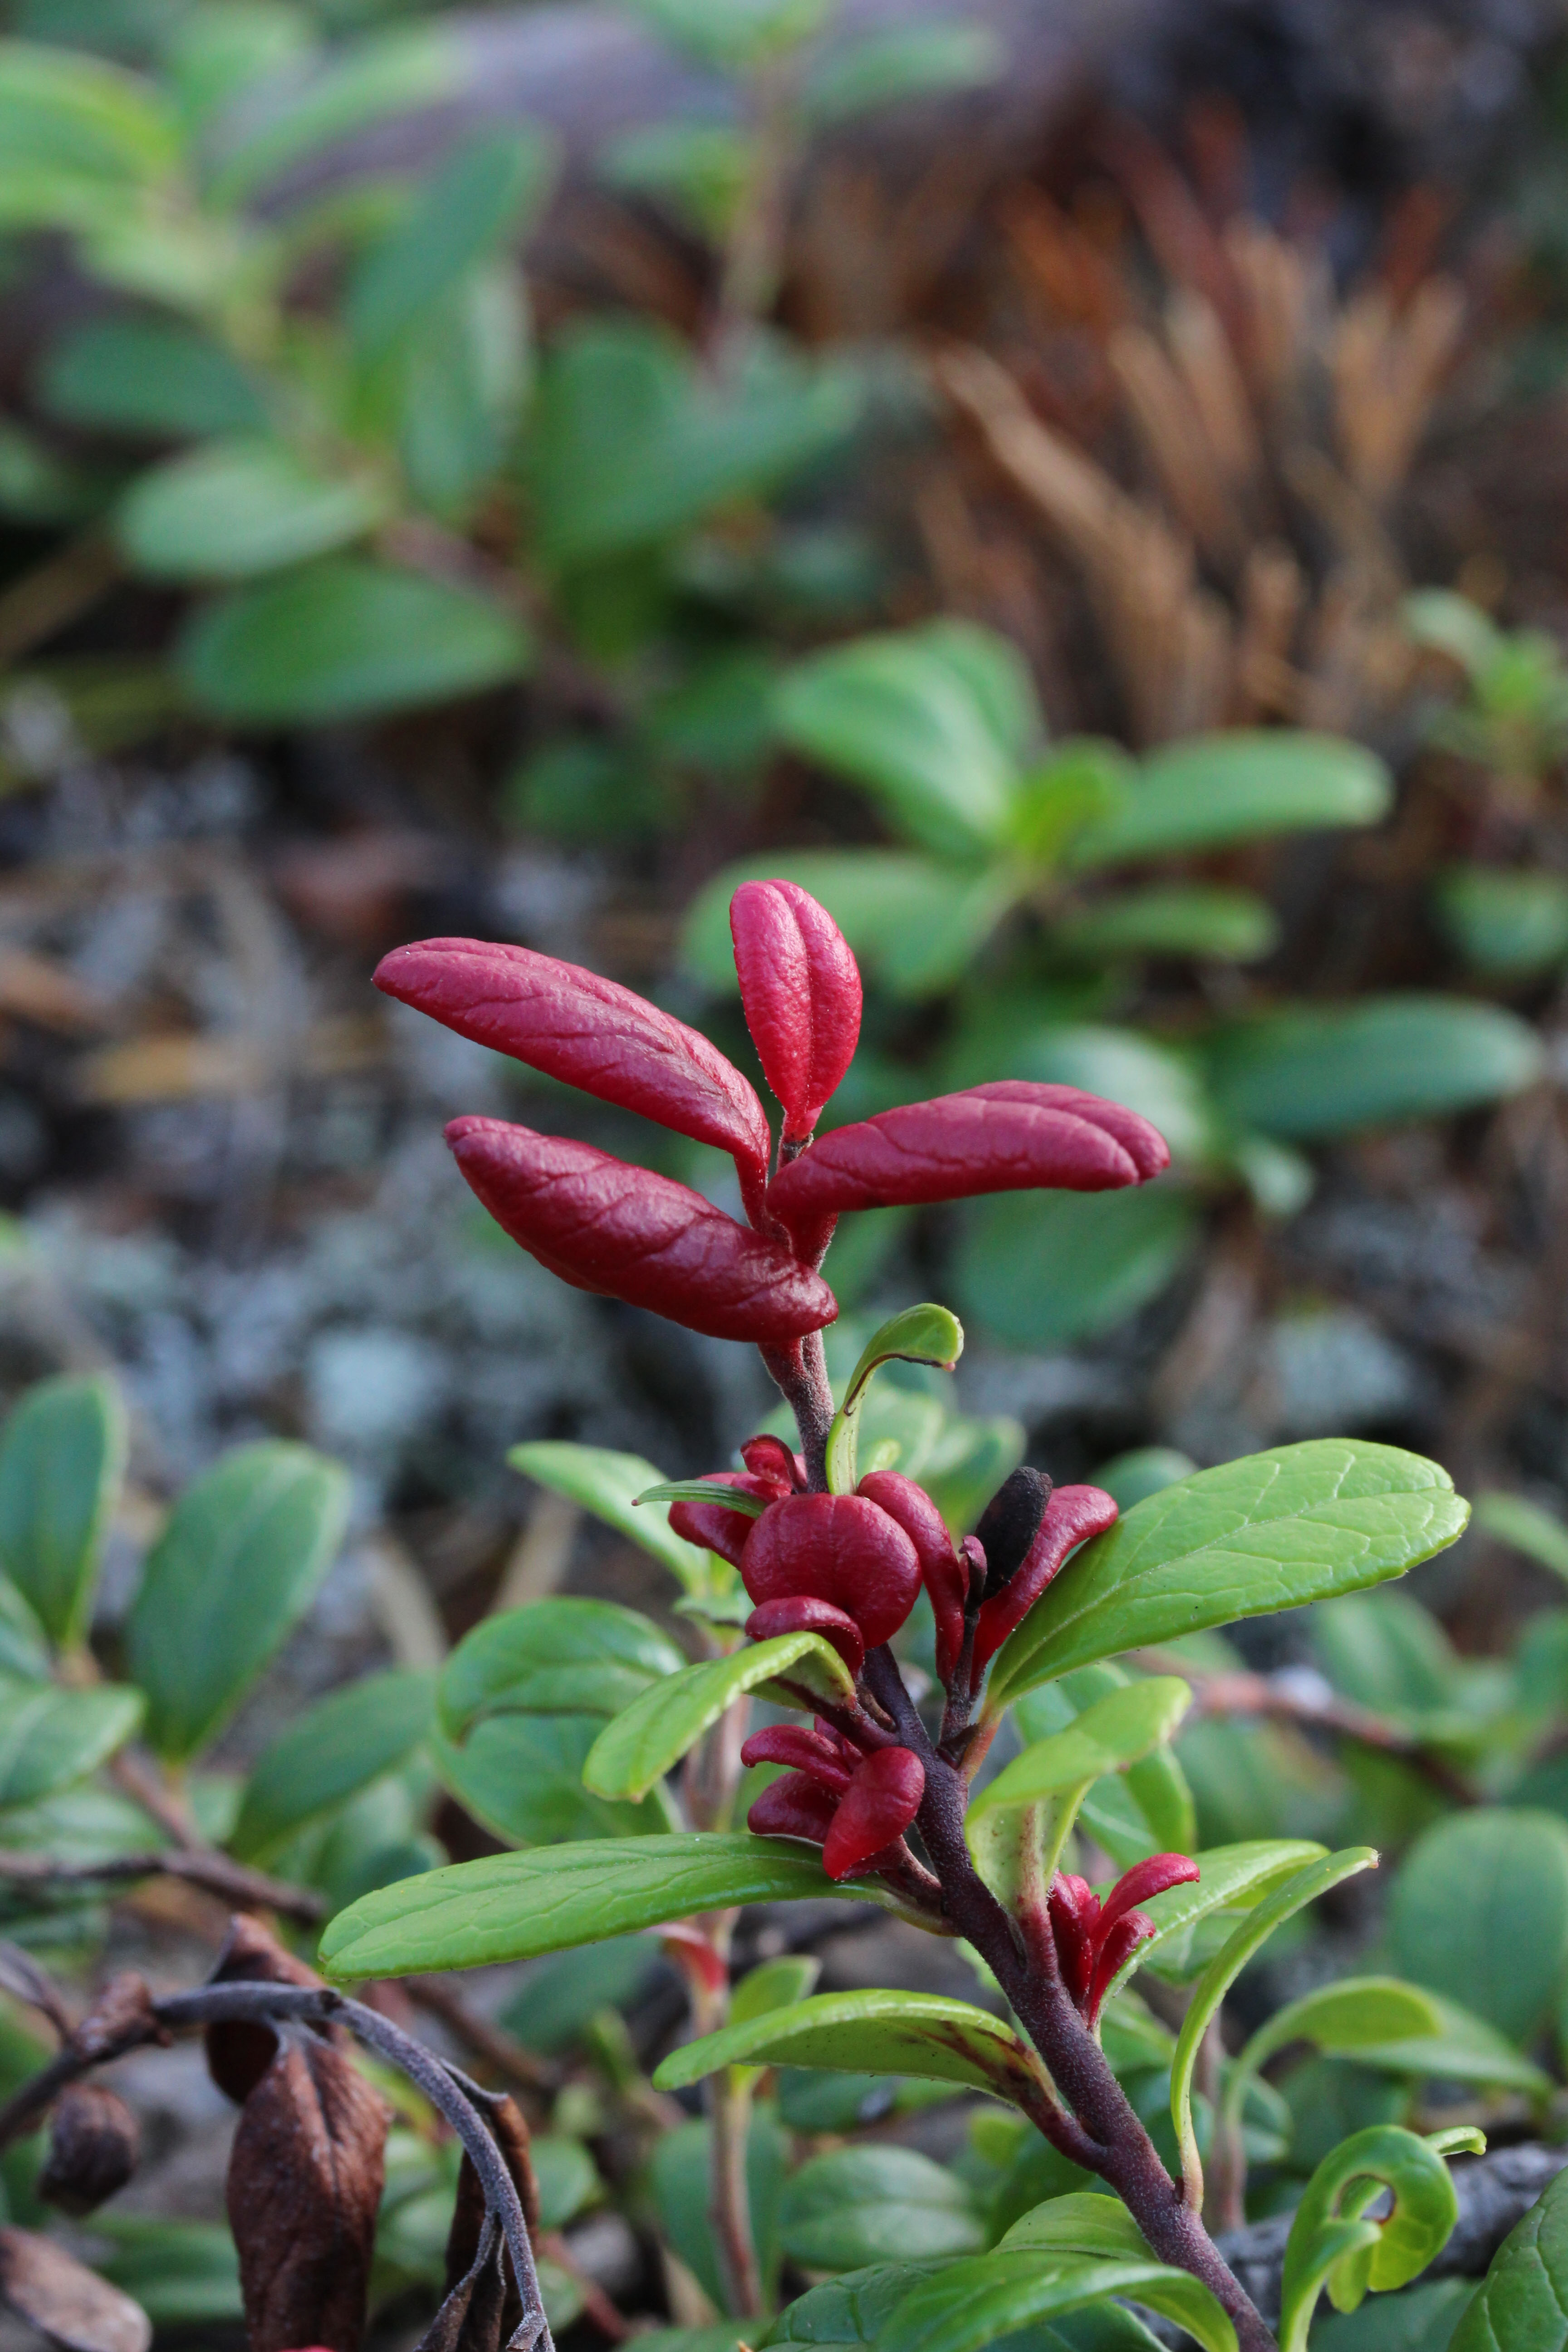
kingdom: Fungi
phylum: Basidiomycota
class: Exobasidiomycetes
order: Exobasidiales
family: Exobasidiaceae
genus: Exobasidium
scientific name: Exobasidium splendidum
